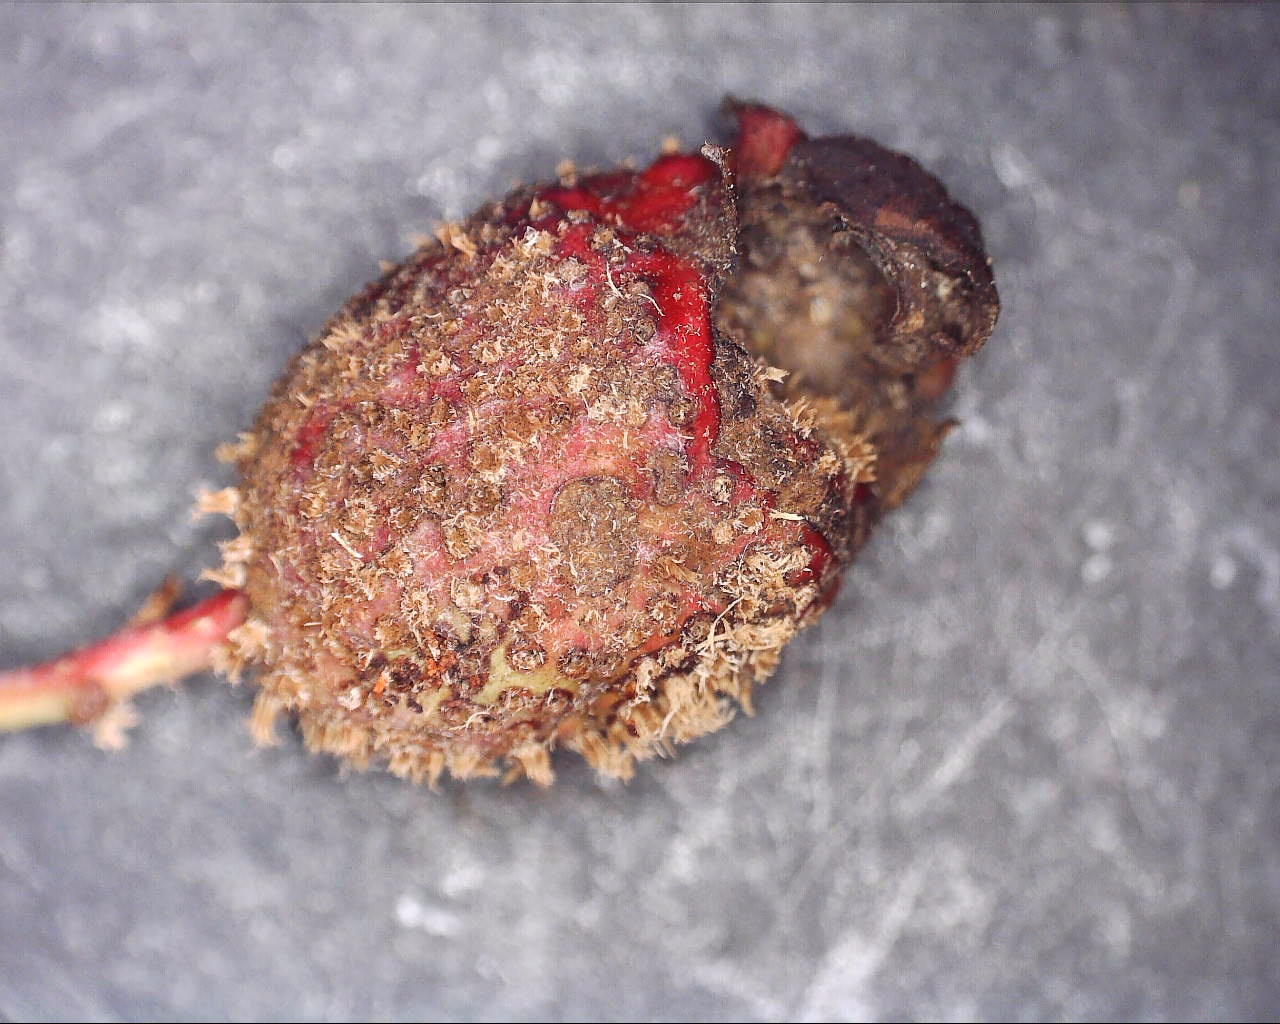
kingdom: Fungi
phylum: Basidiomycota
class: Pucciniomycetes
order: Pucciniales
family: Gymnosporangiaceae
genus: Gymnosporangium
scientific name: Gymnosporangium clavariiforme
